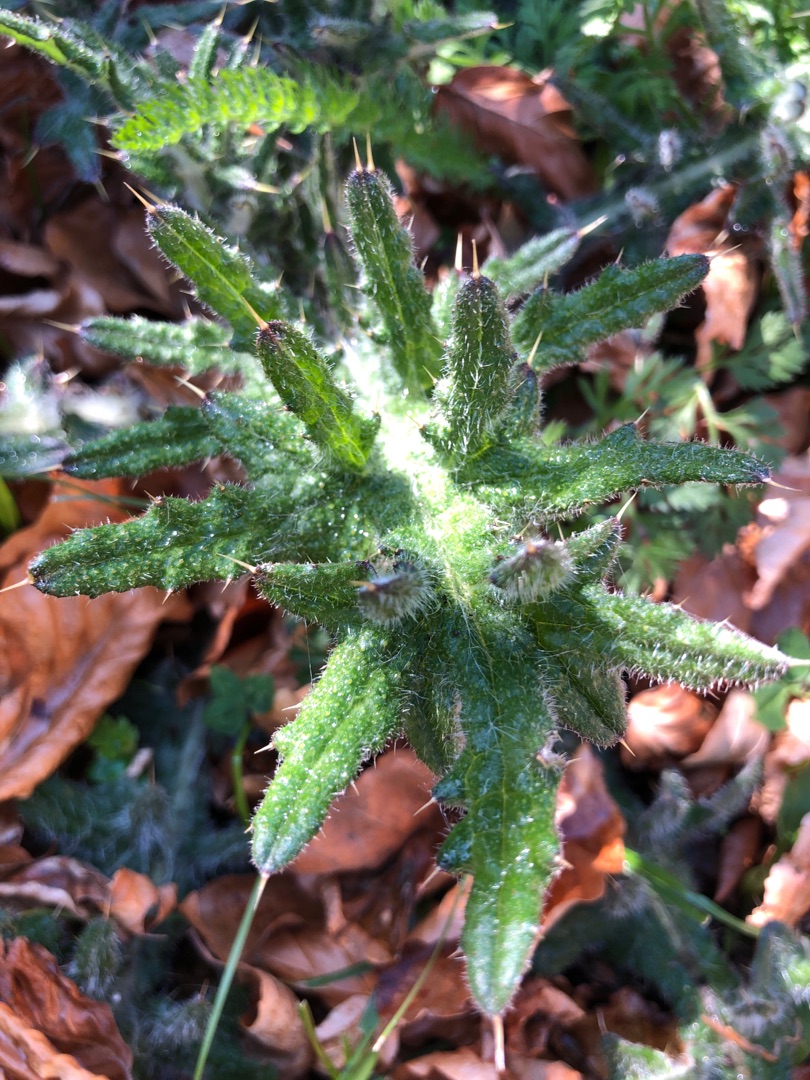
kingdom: Plantae
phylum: Tracheophyta
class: Magnoliopsida
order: Asterales
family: Asteraceae
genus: Cirsium
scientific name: Cirsium vulgare
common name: Horse-tidsel
